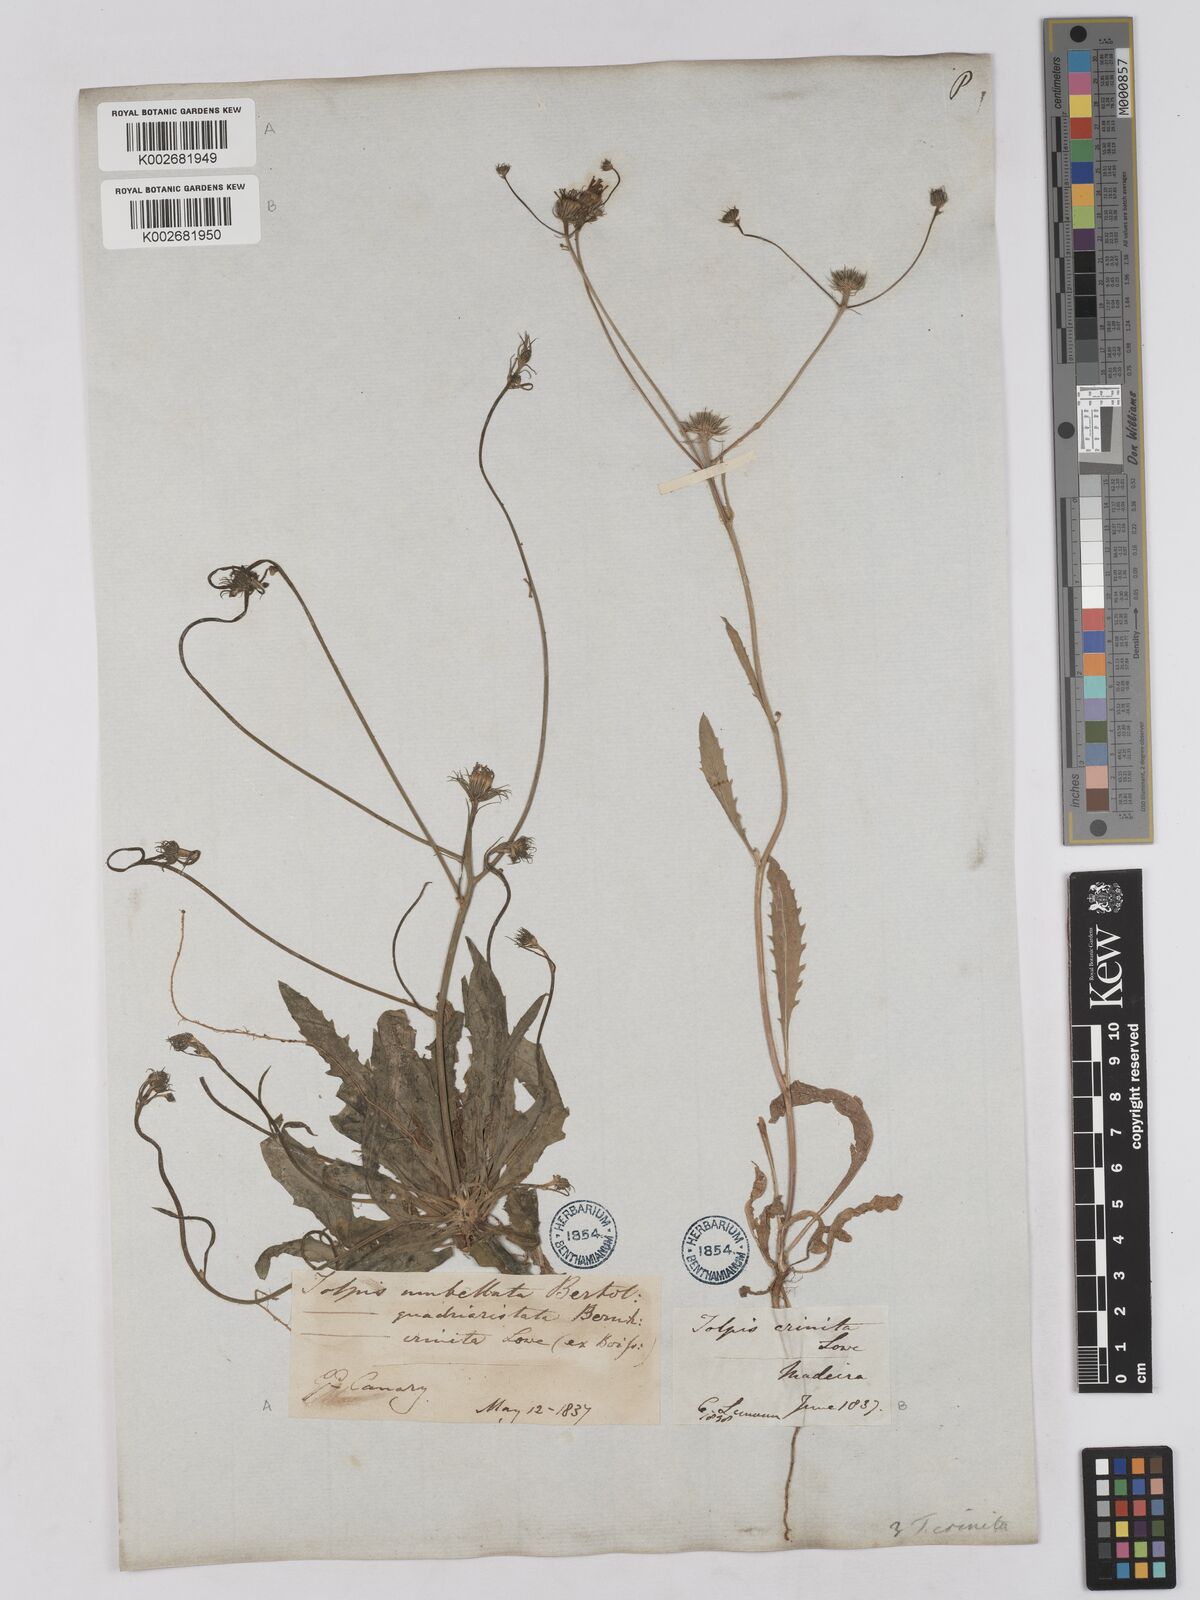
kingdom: Plantae
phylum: Tracheophyta
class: Magnoliopsida
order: Asterales
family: Asteraceae
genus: Tolpis
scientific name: Tolpis umbellata
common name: Yellow hawkweed
